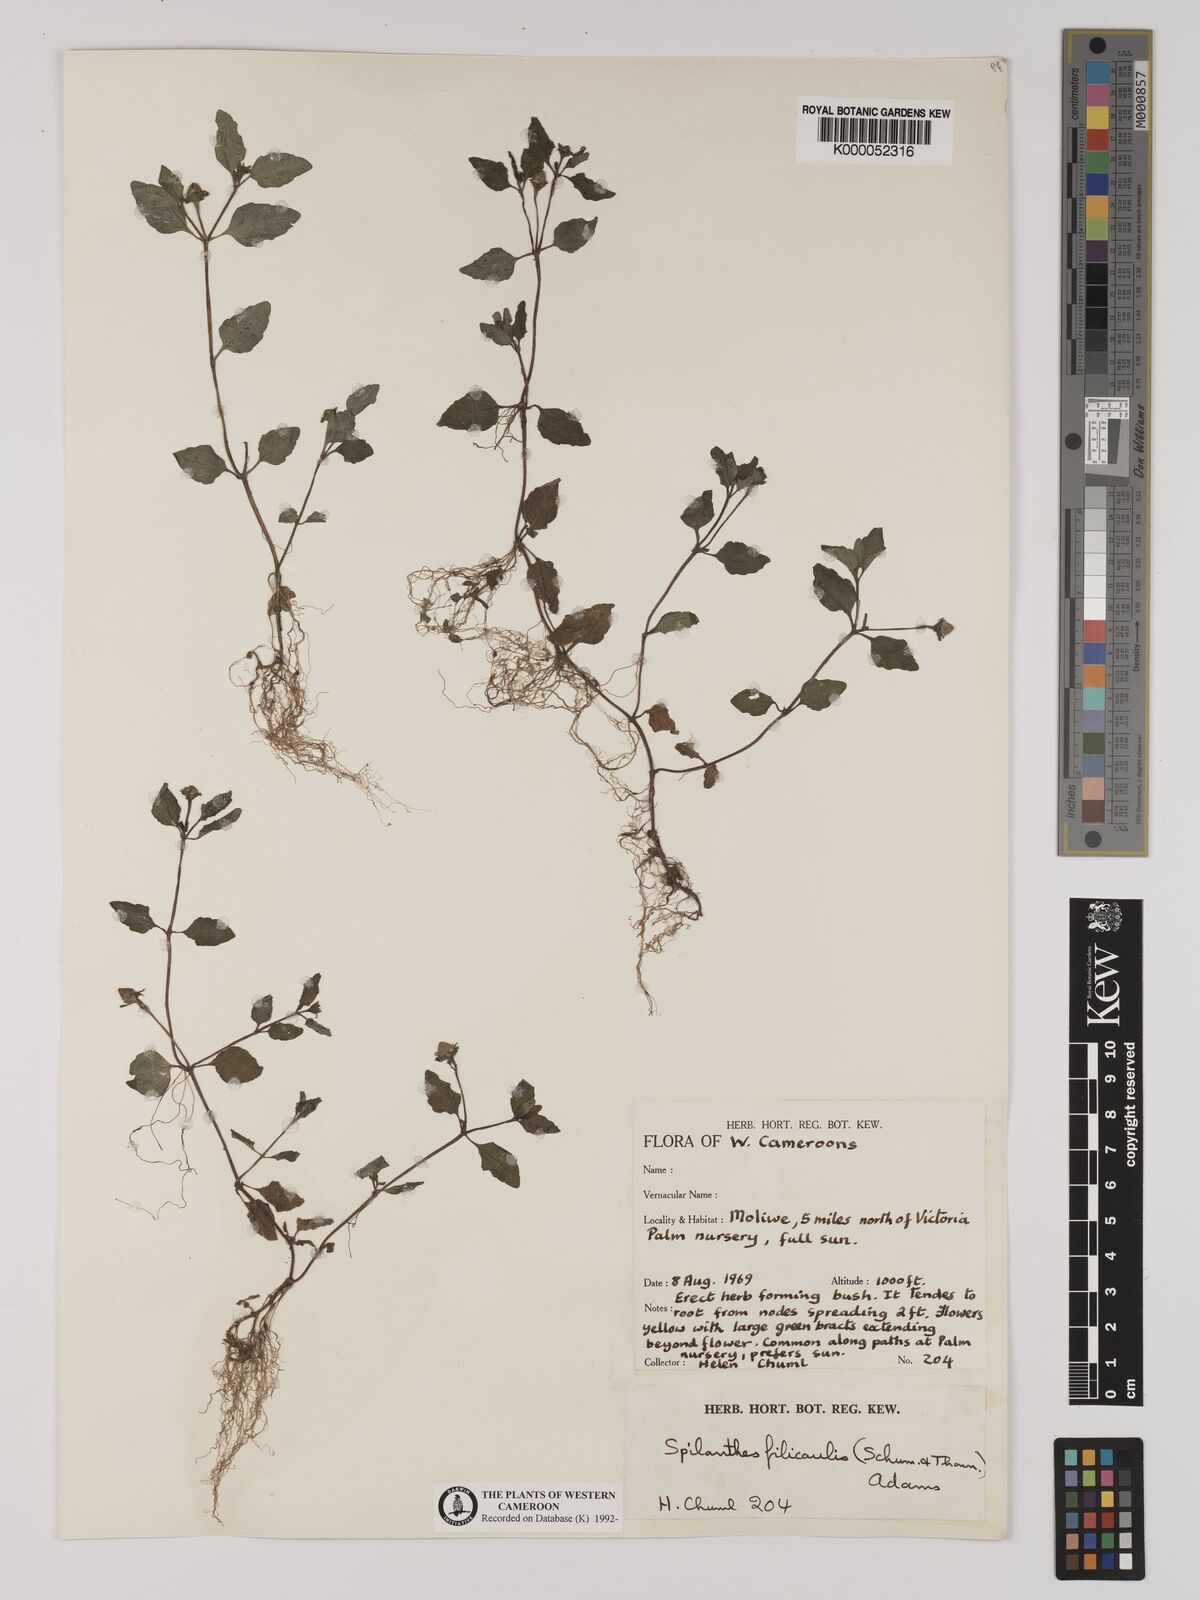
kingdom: Plantae
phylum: Tracheophyta
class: Magnoliopsida
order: Asterales
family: Asteraceae
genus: Acmella
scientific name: Acmella caulirhiza
